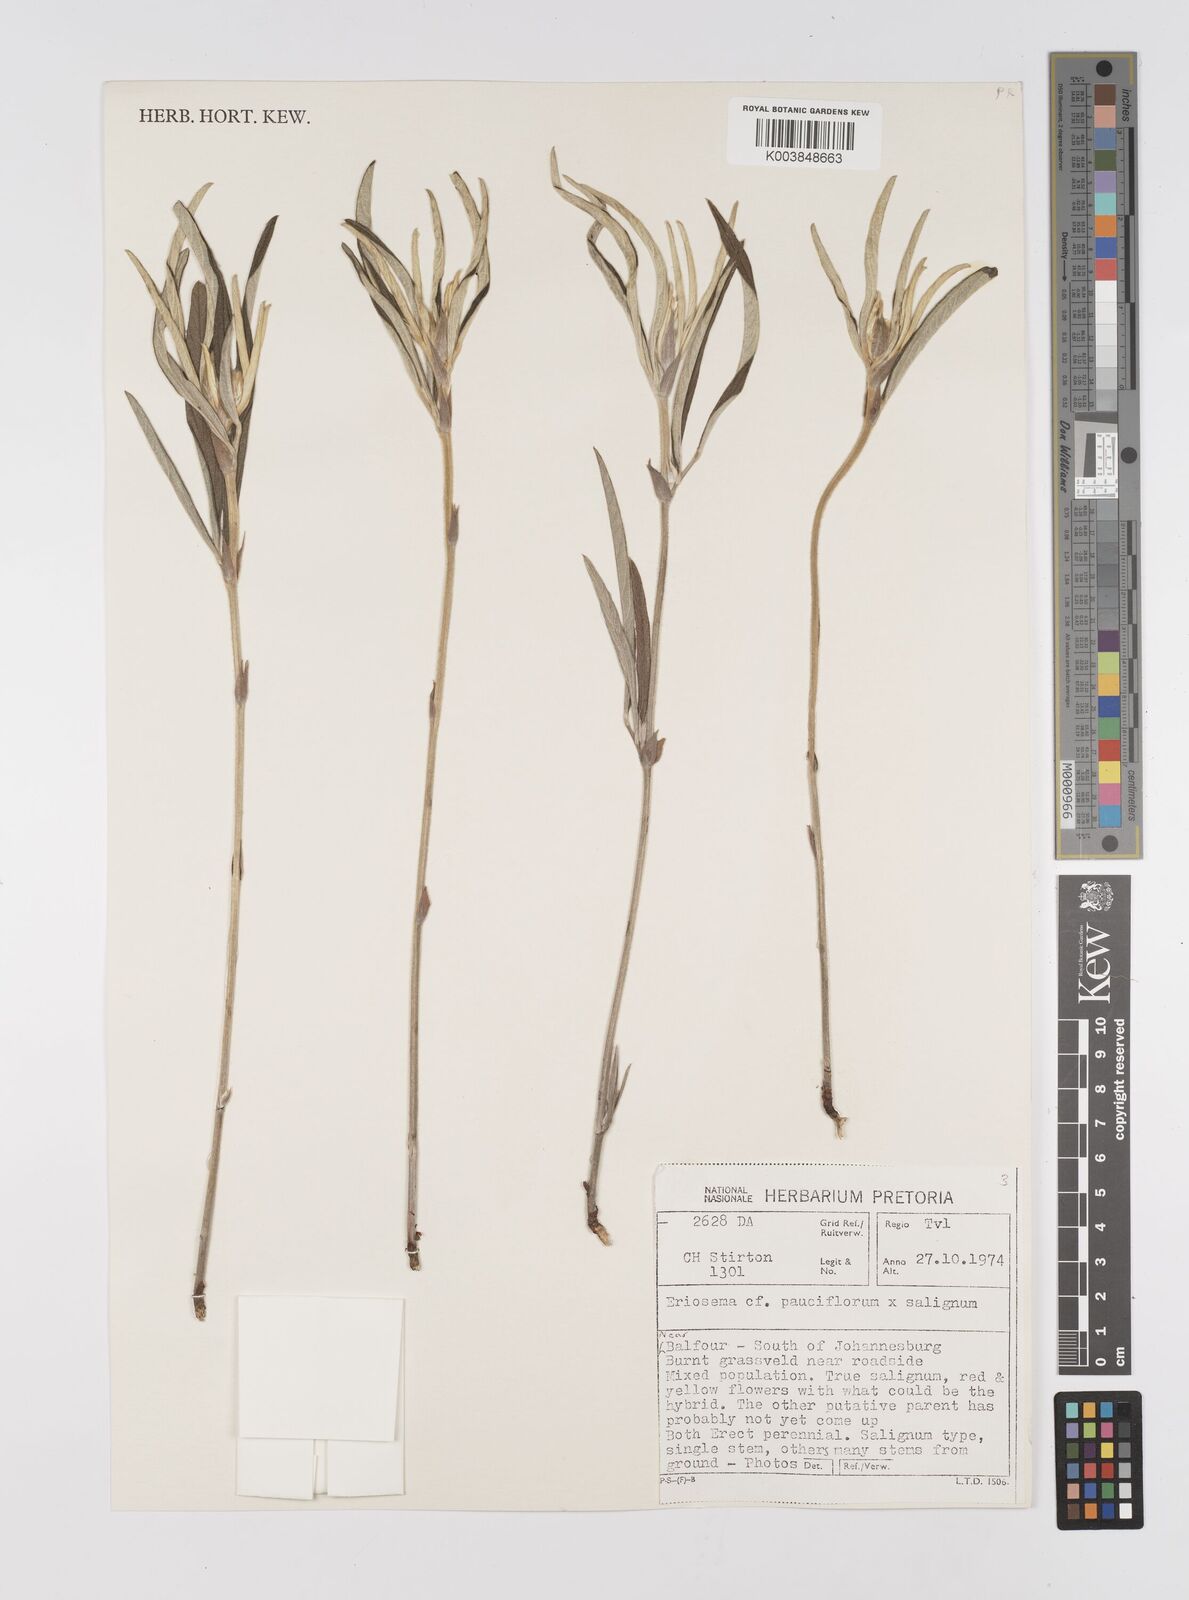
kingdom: Plantae
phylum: Tracheophyta
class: Magnoliopsida
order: Fabales
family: Fabaceae
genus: Eriosema
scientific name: Eriosema pauciflorum
